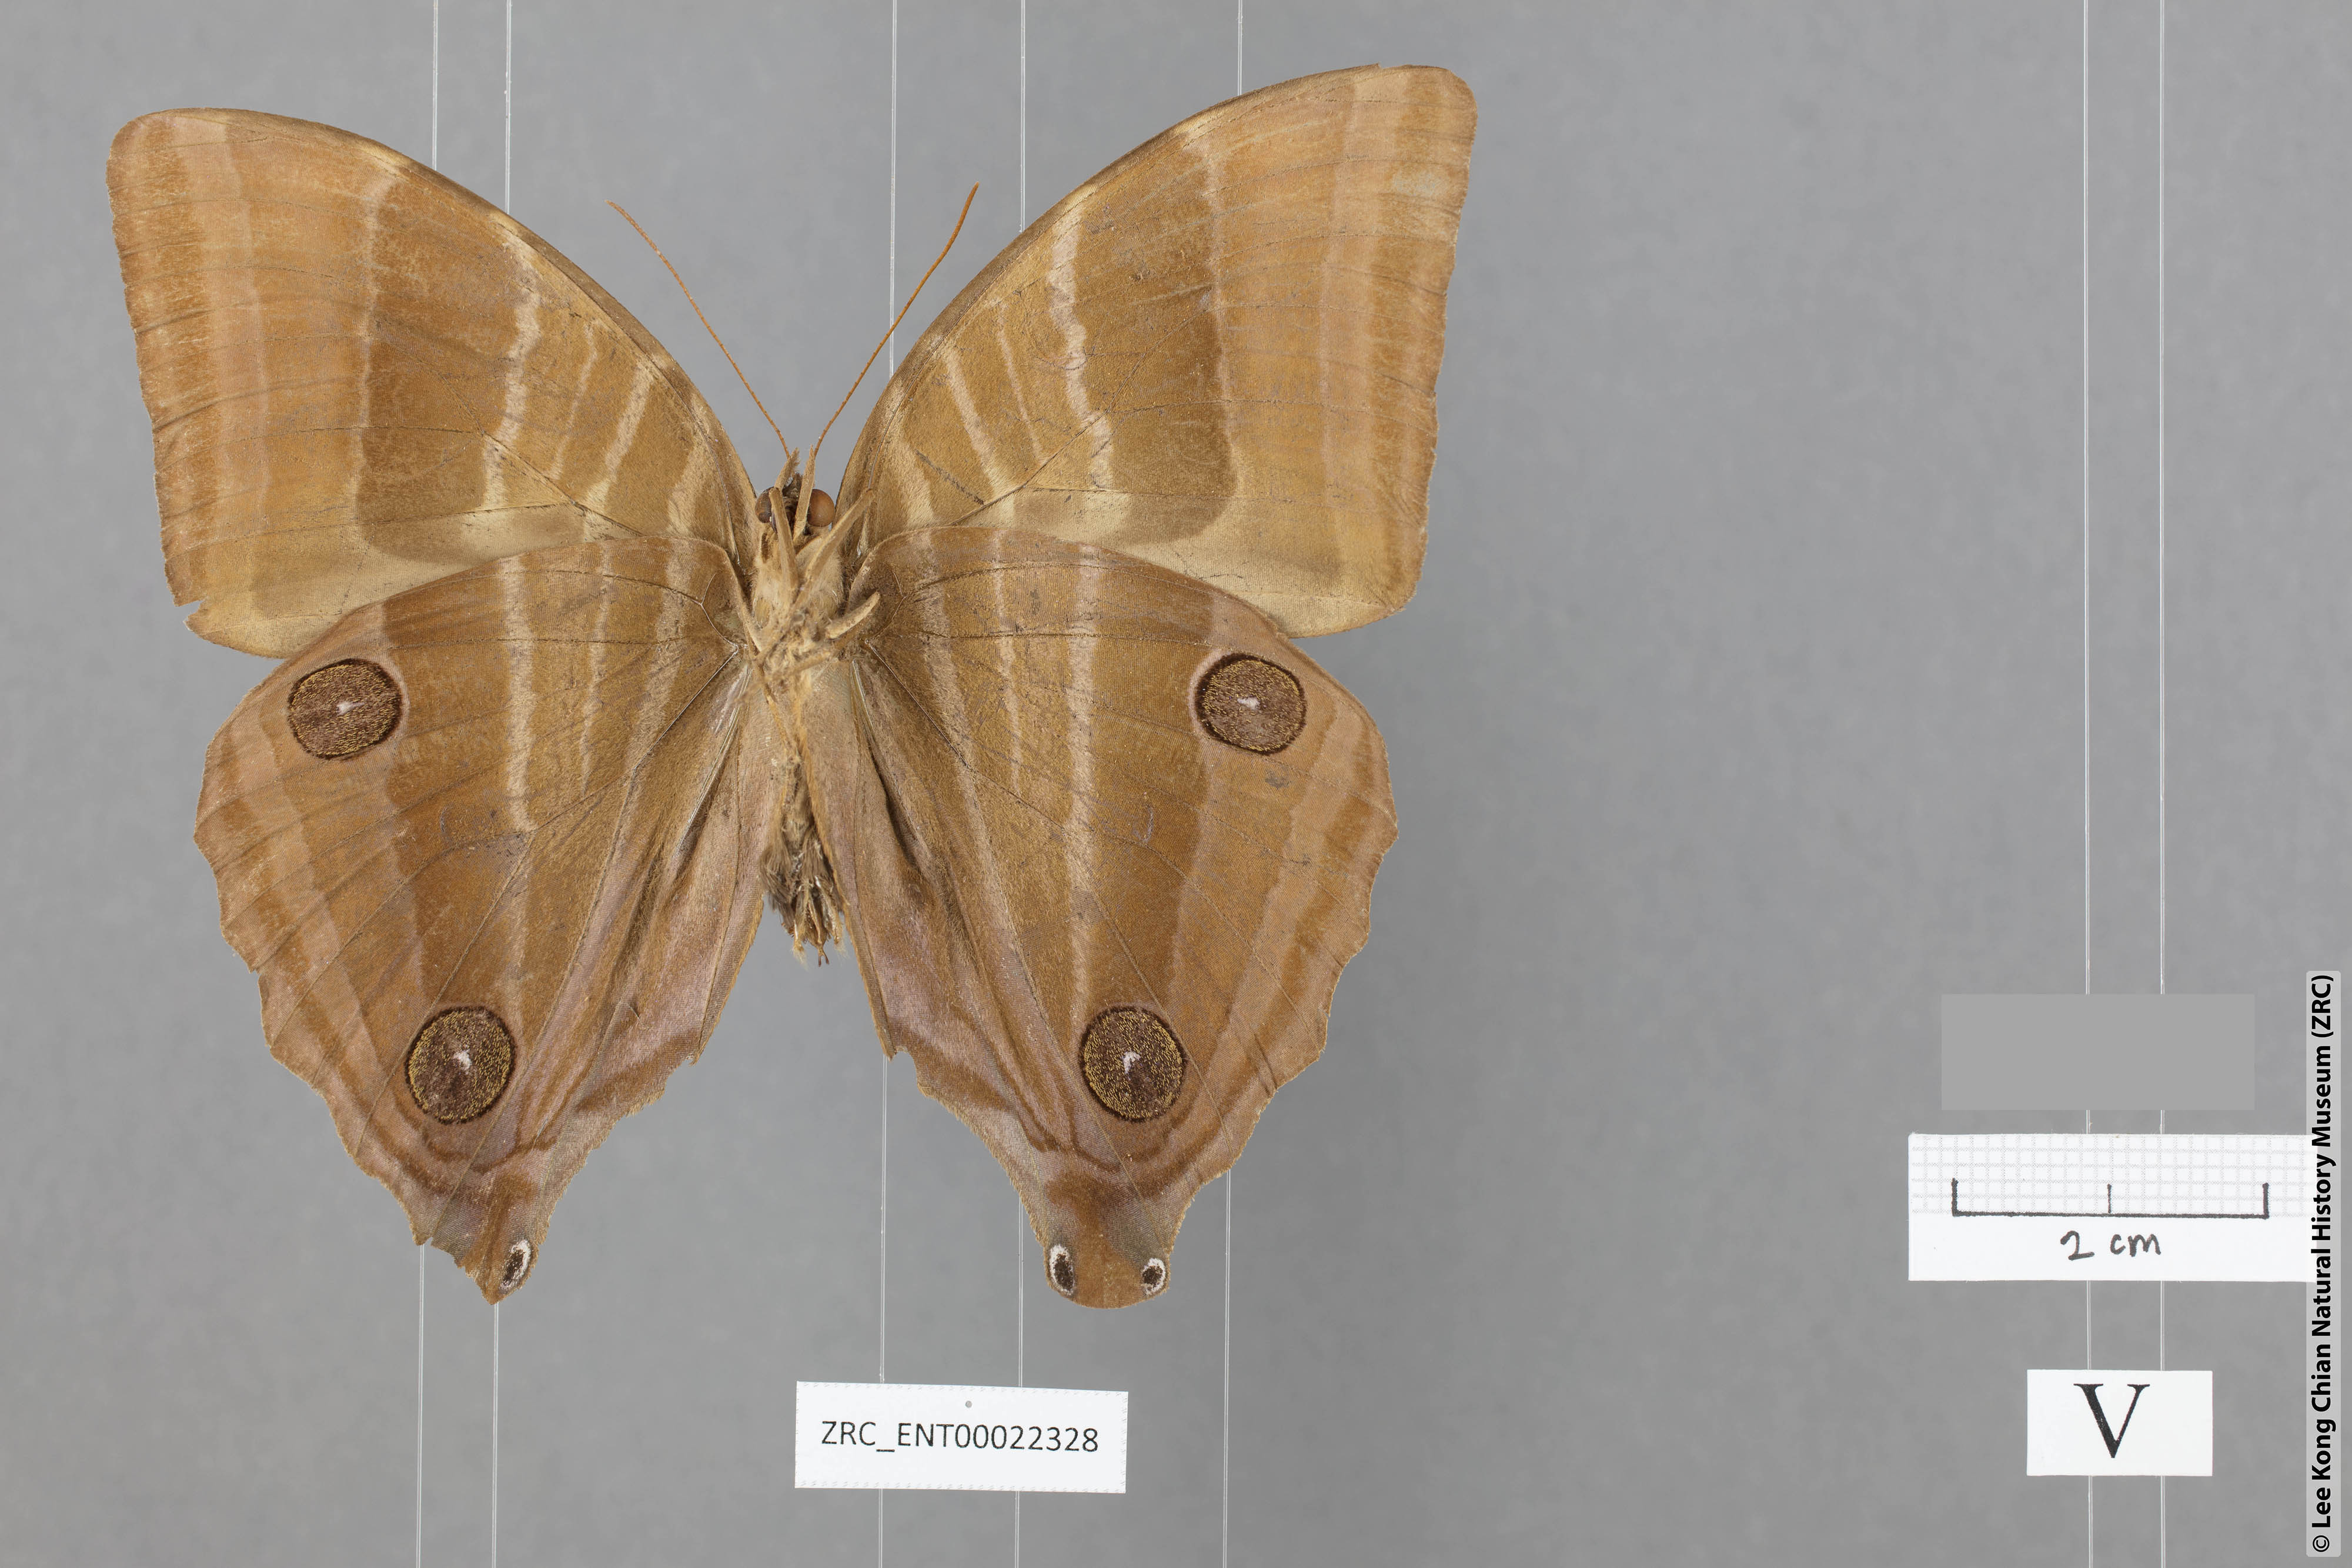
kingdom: Animalia
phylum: Arthropoda
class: Insecta
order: Lepidoptera
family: Nymphalidae
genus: Amathusia
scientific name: Amathusia binghami
